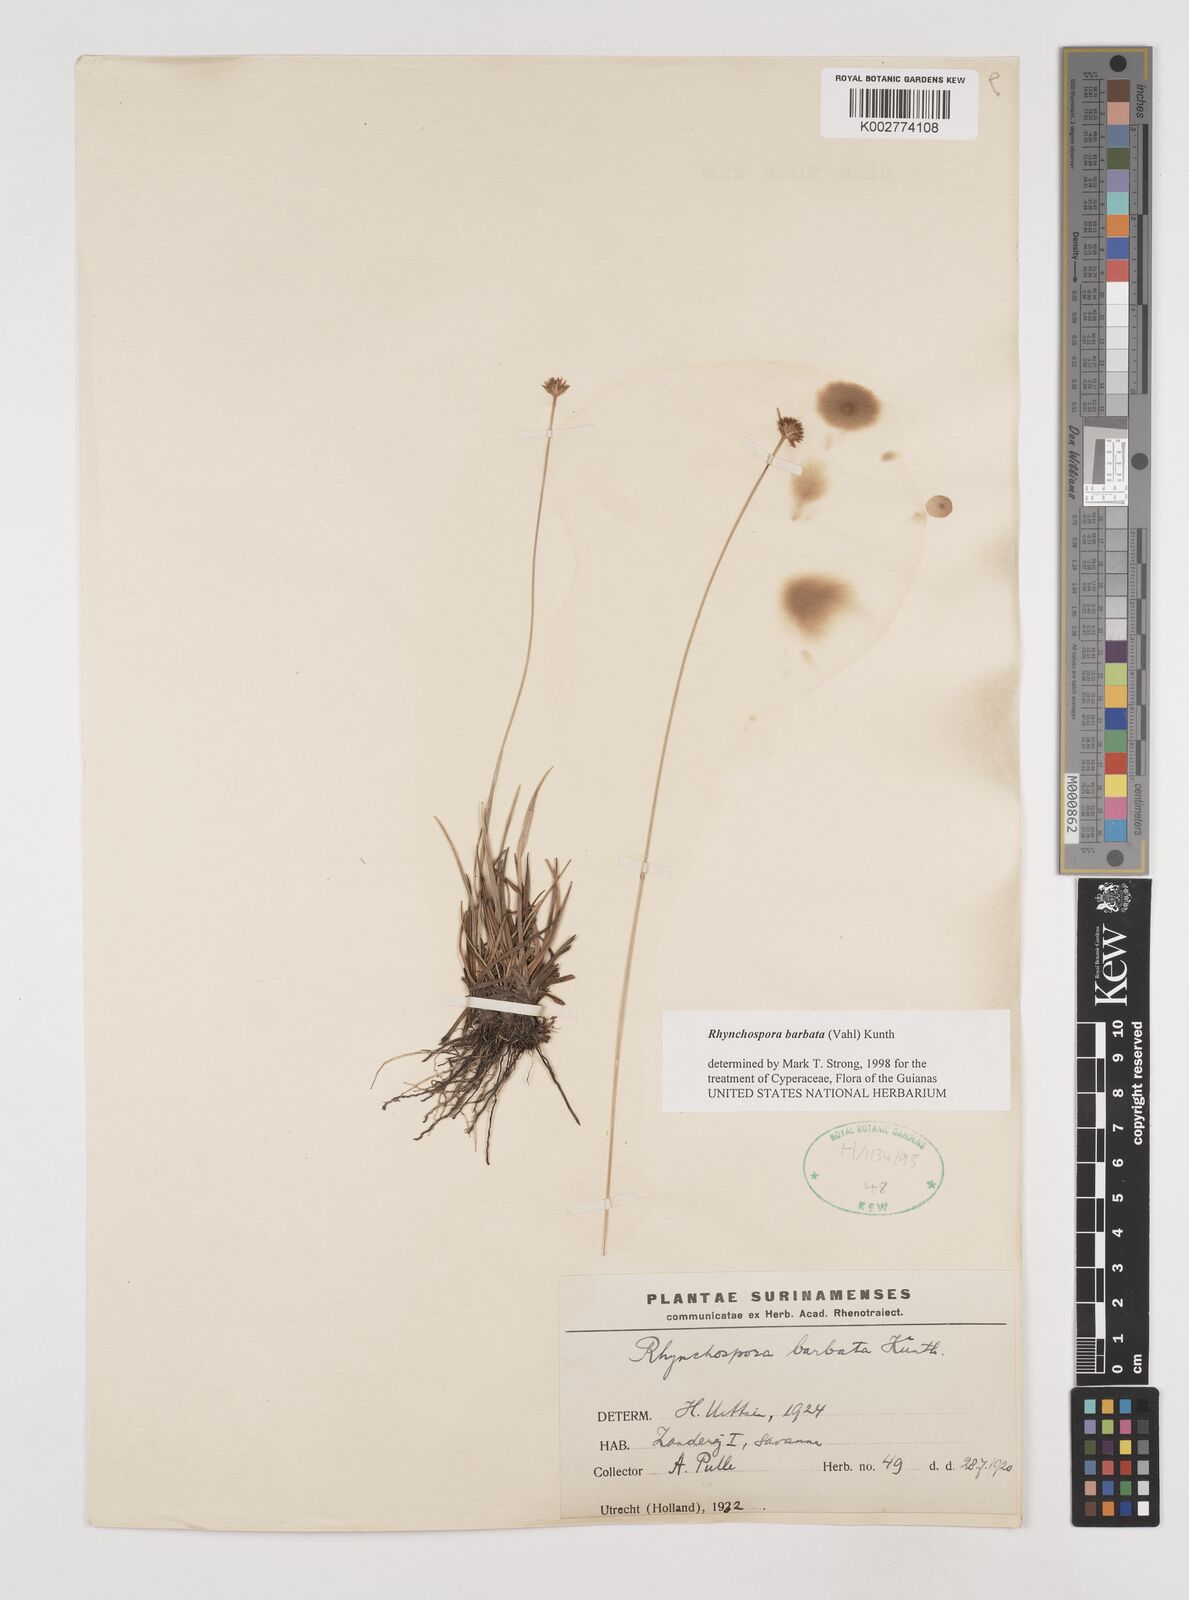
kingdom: Plantae
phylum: Tracheophyta
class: Liliopsida
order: Poales
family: Cyperaceae
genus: Rhynchospora
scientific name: Rhynchospora barbata
